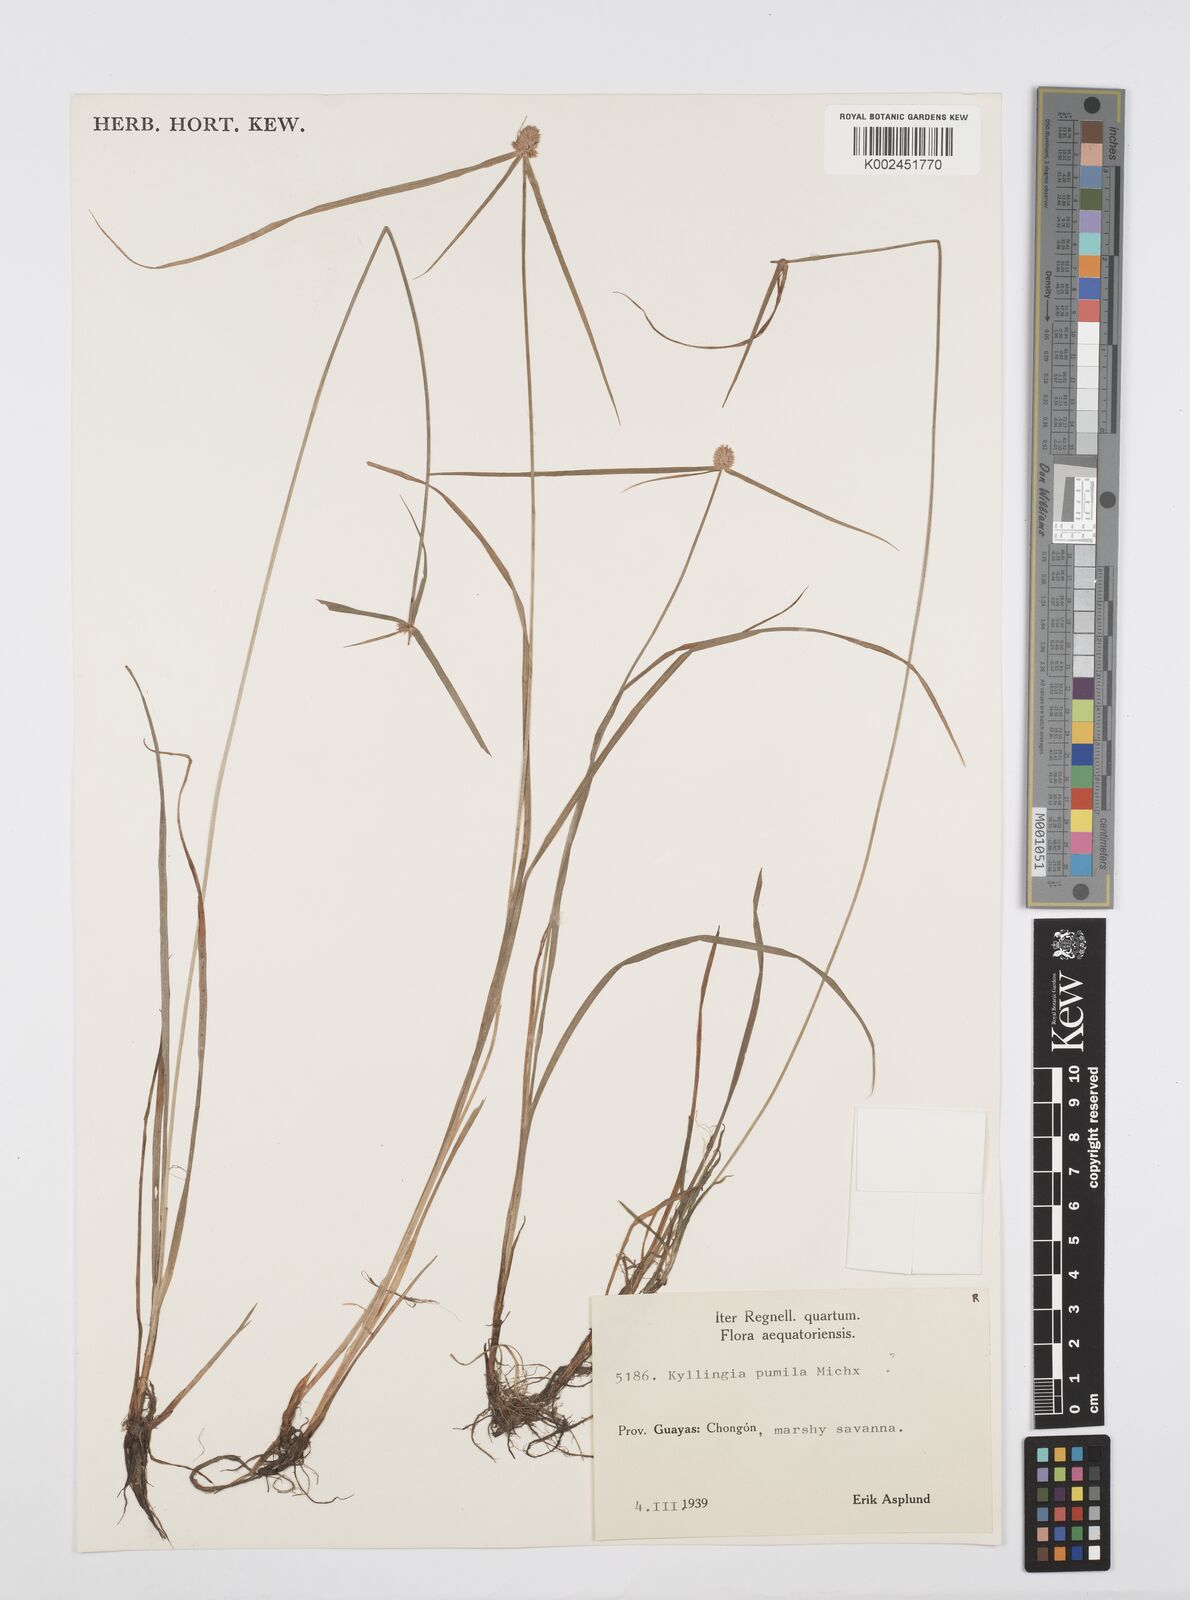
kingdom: Plantae
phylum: Tracheophyta
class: Liliopsida
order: Poales
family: Cyperaceae
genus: Cyperus
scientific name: Cyperus
